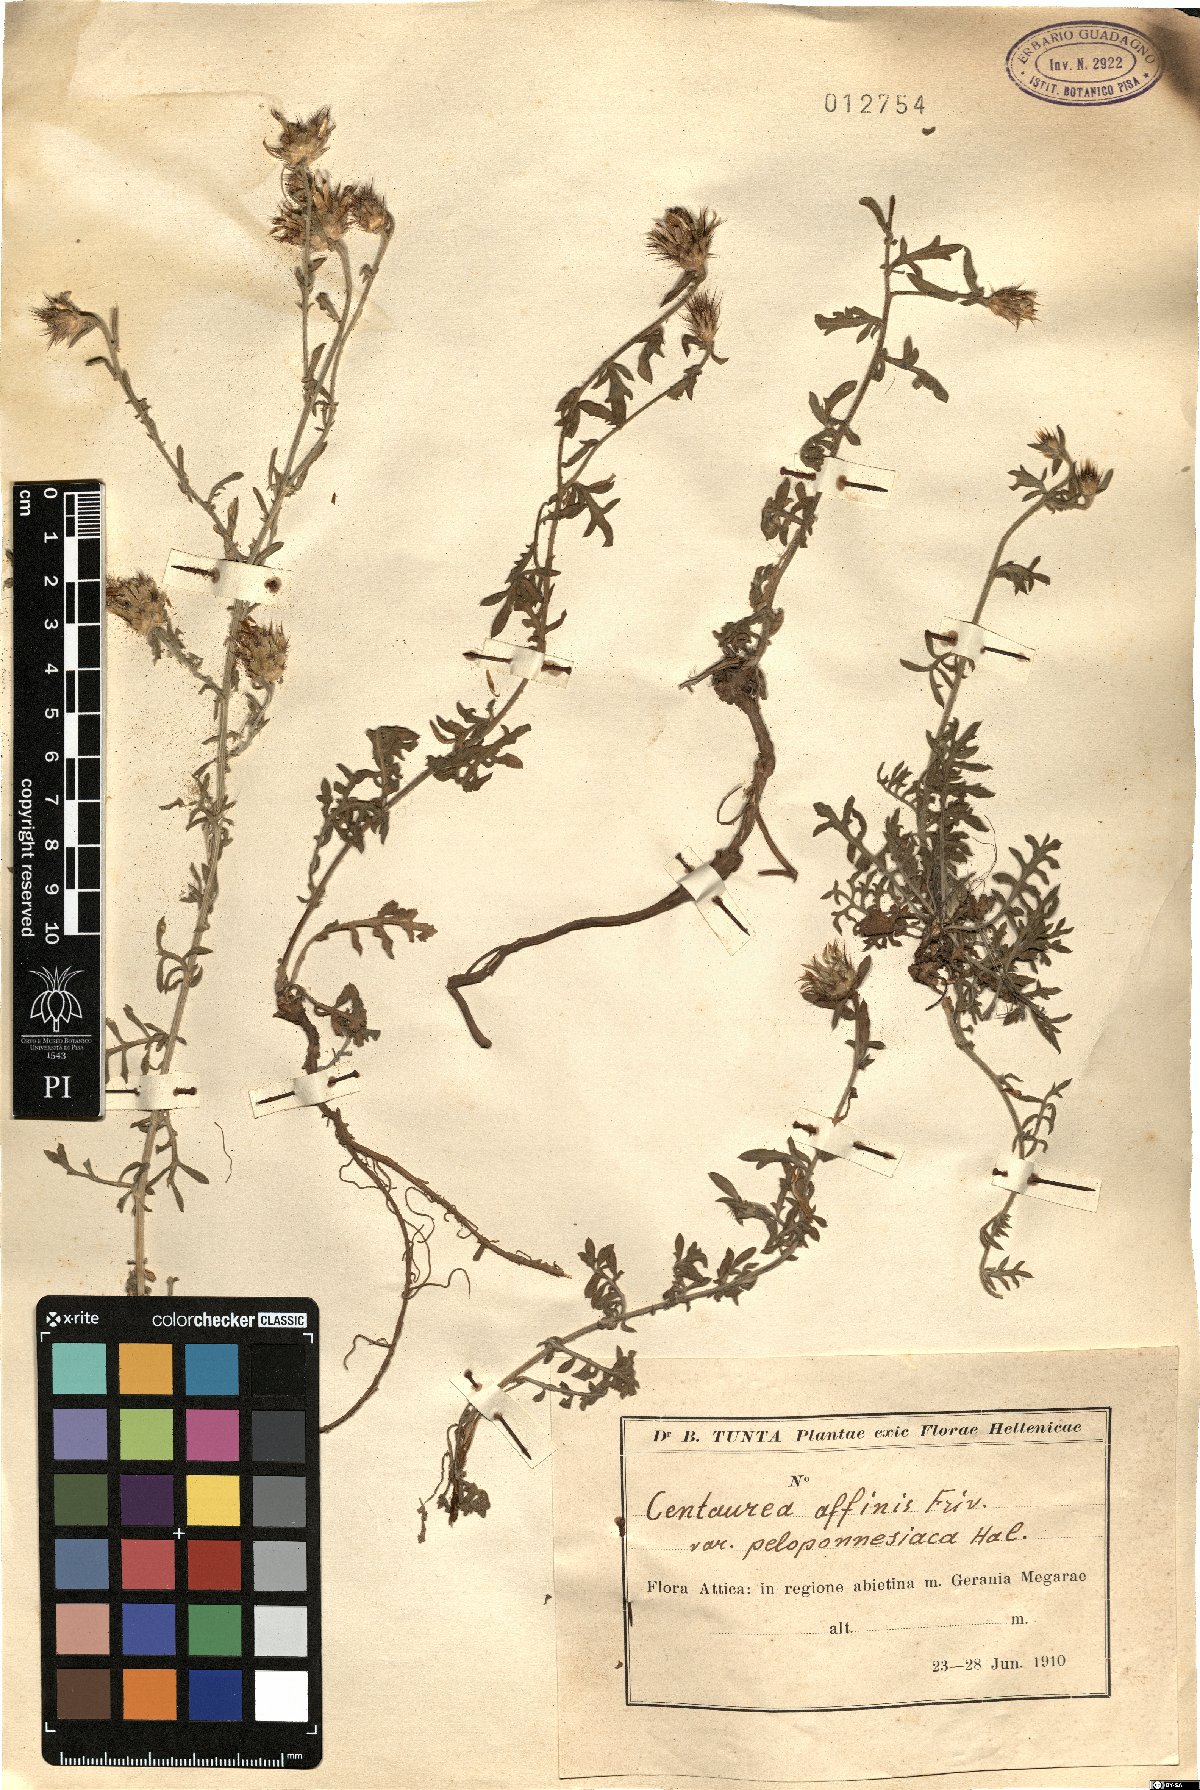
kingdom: Plantae
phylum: Tracheophyta
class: Magnoliopsida
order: Asterales
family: Asteraceae
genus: Centaurea
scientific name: Centaurea affinis
